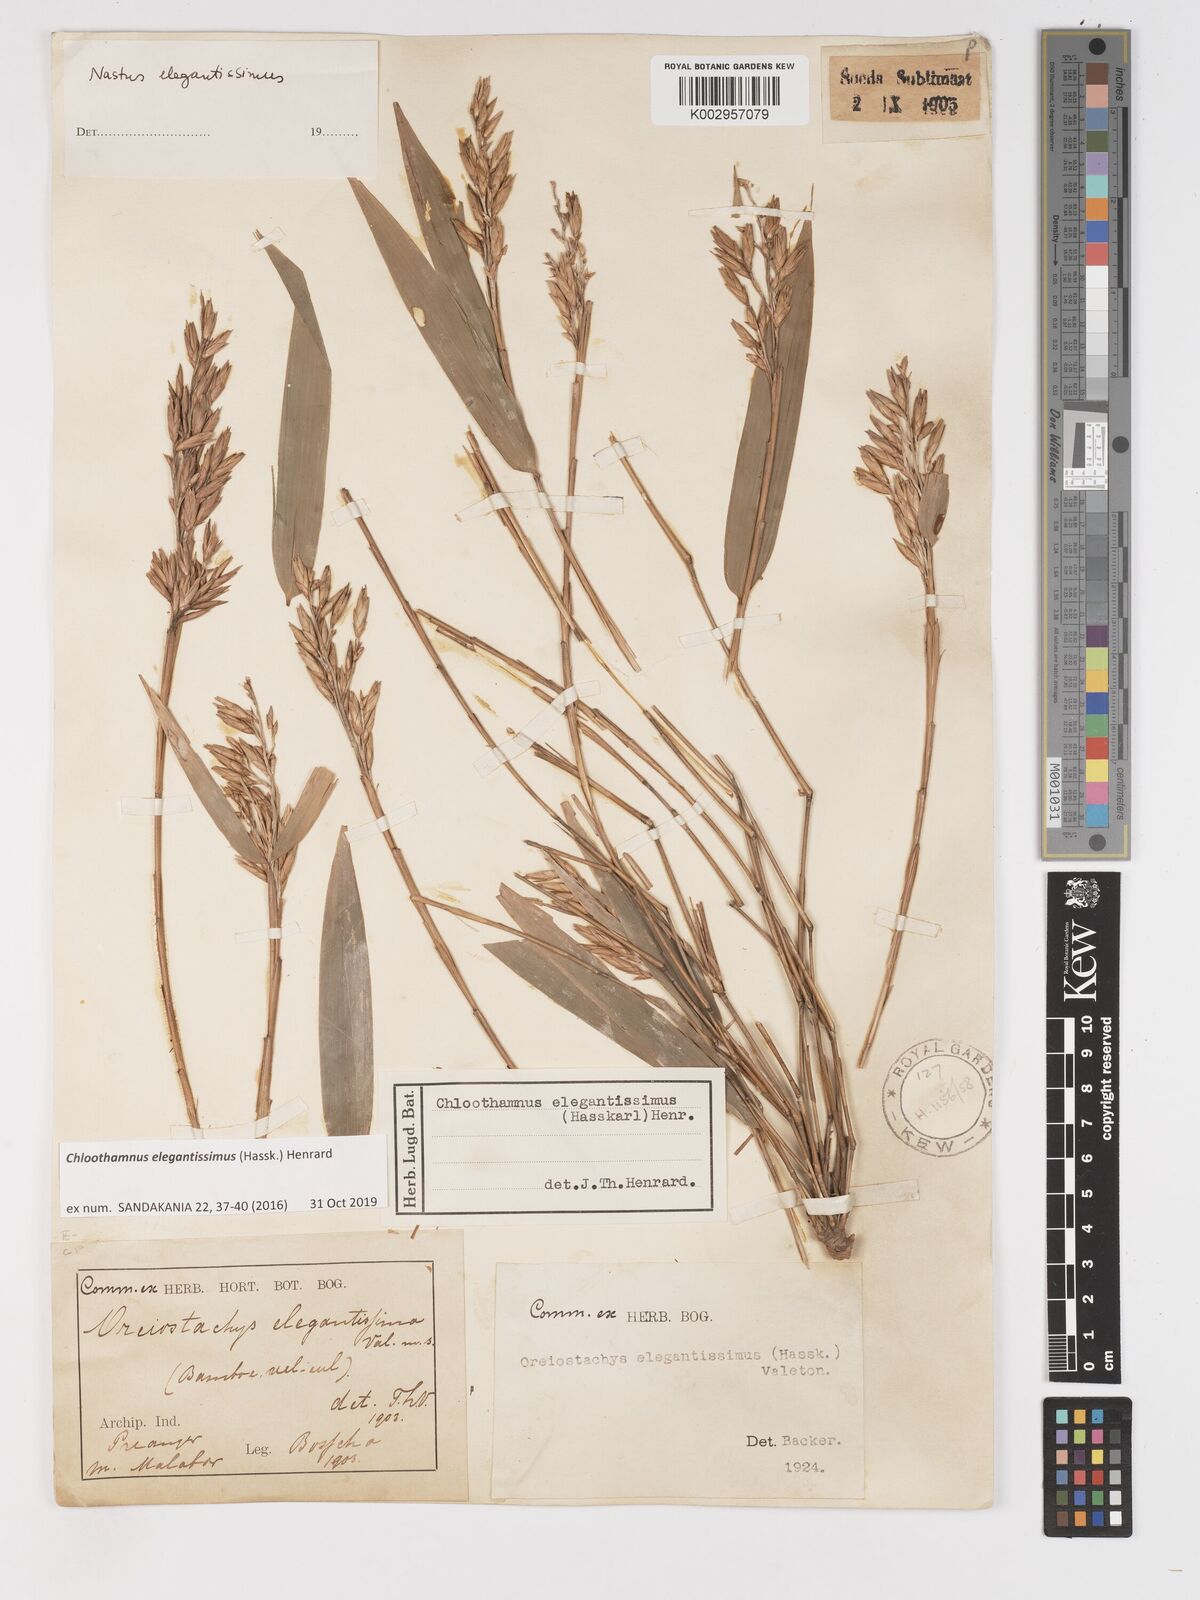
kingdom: Plantae
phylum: Tracheophyta
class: Liliopsida
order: Poales
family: Poaceae
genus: Chloothamnus
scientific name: Chloothamnus elegantissimus
